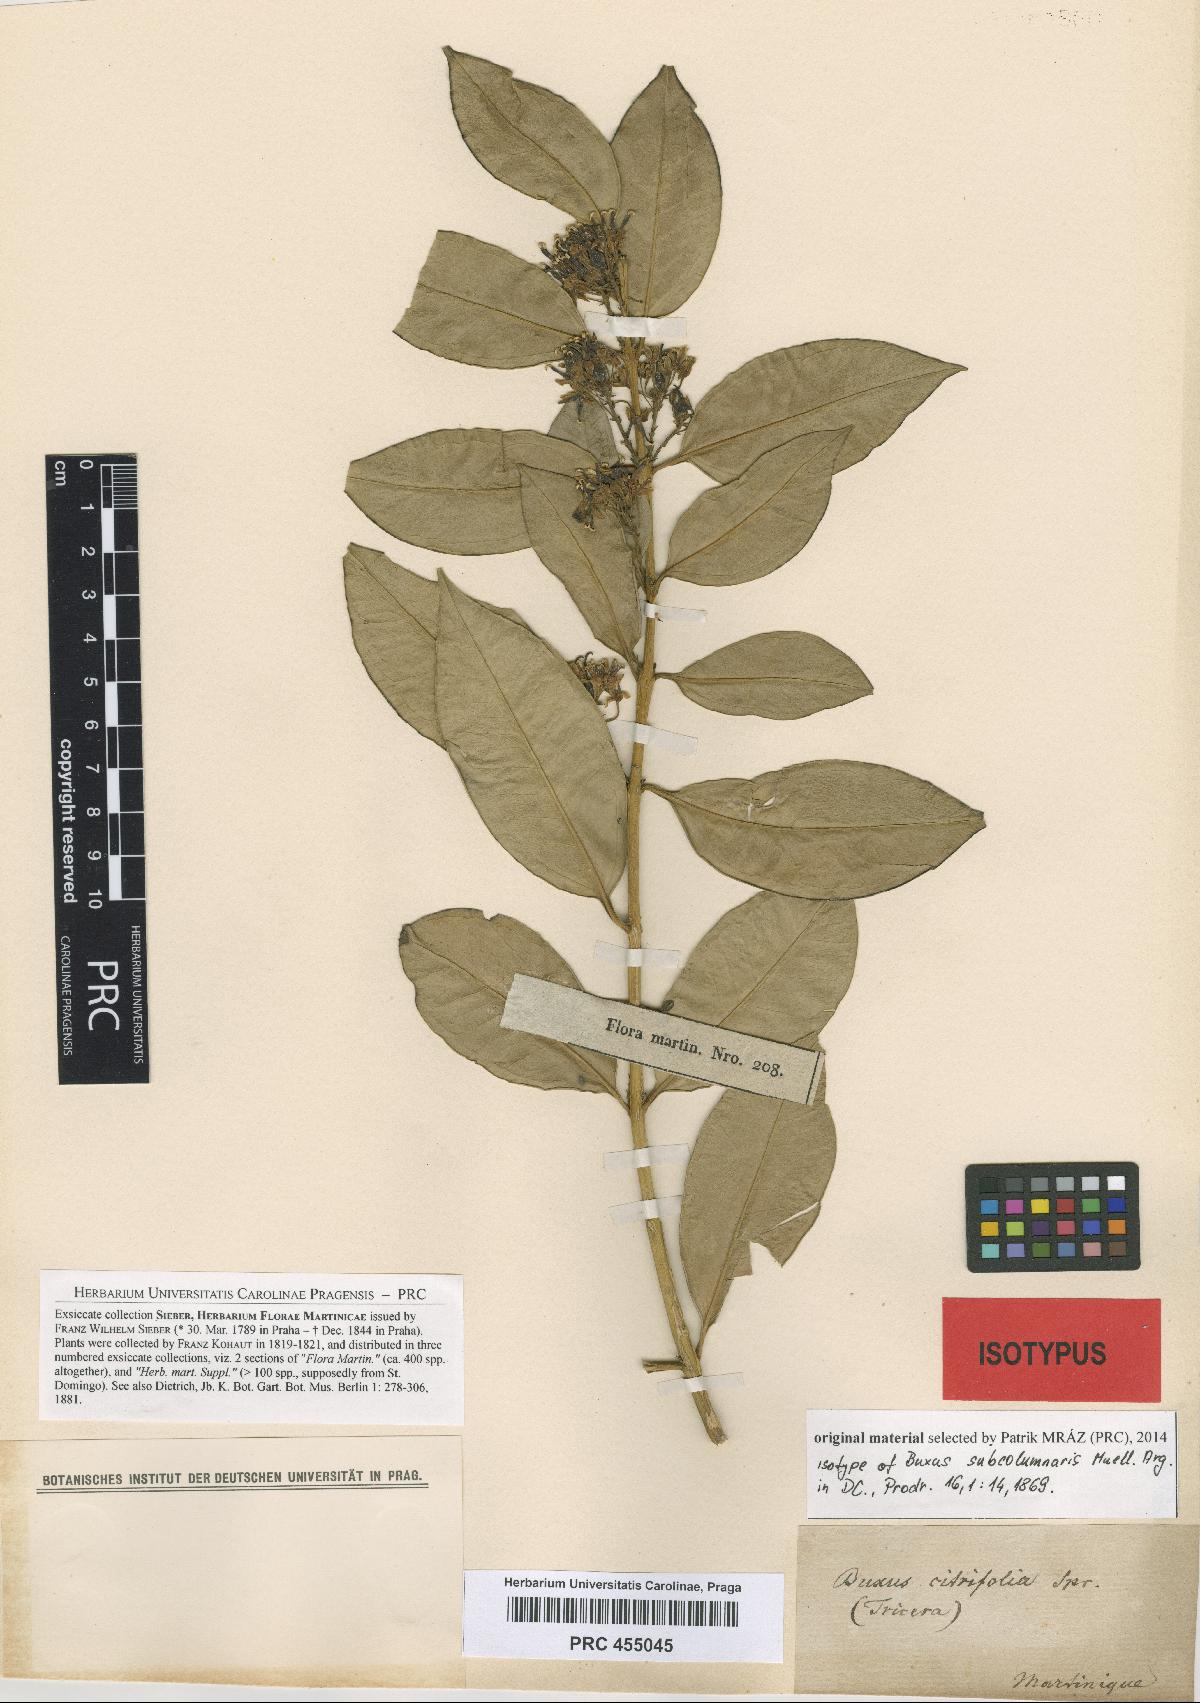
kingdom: Plantae
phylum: Tracheophyta
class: Magnoliopsida
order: Buxales
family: Buxaceae
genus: Buxus
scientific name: Buxus subcolumnaris
